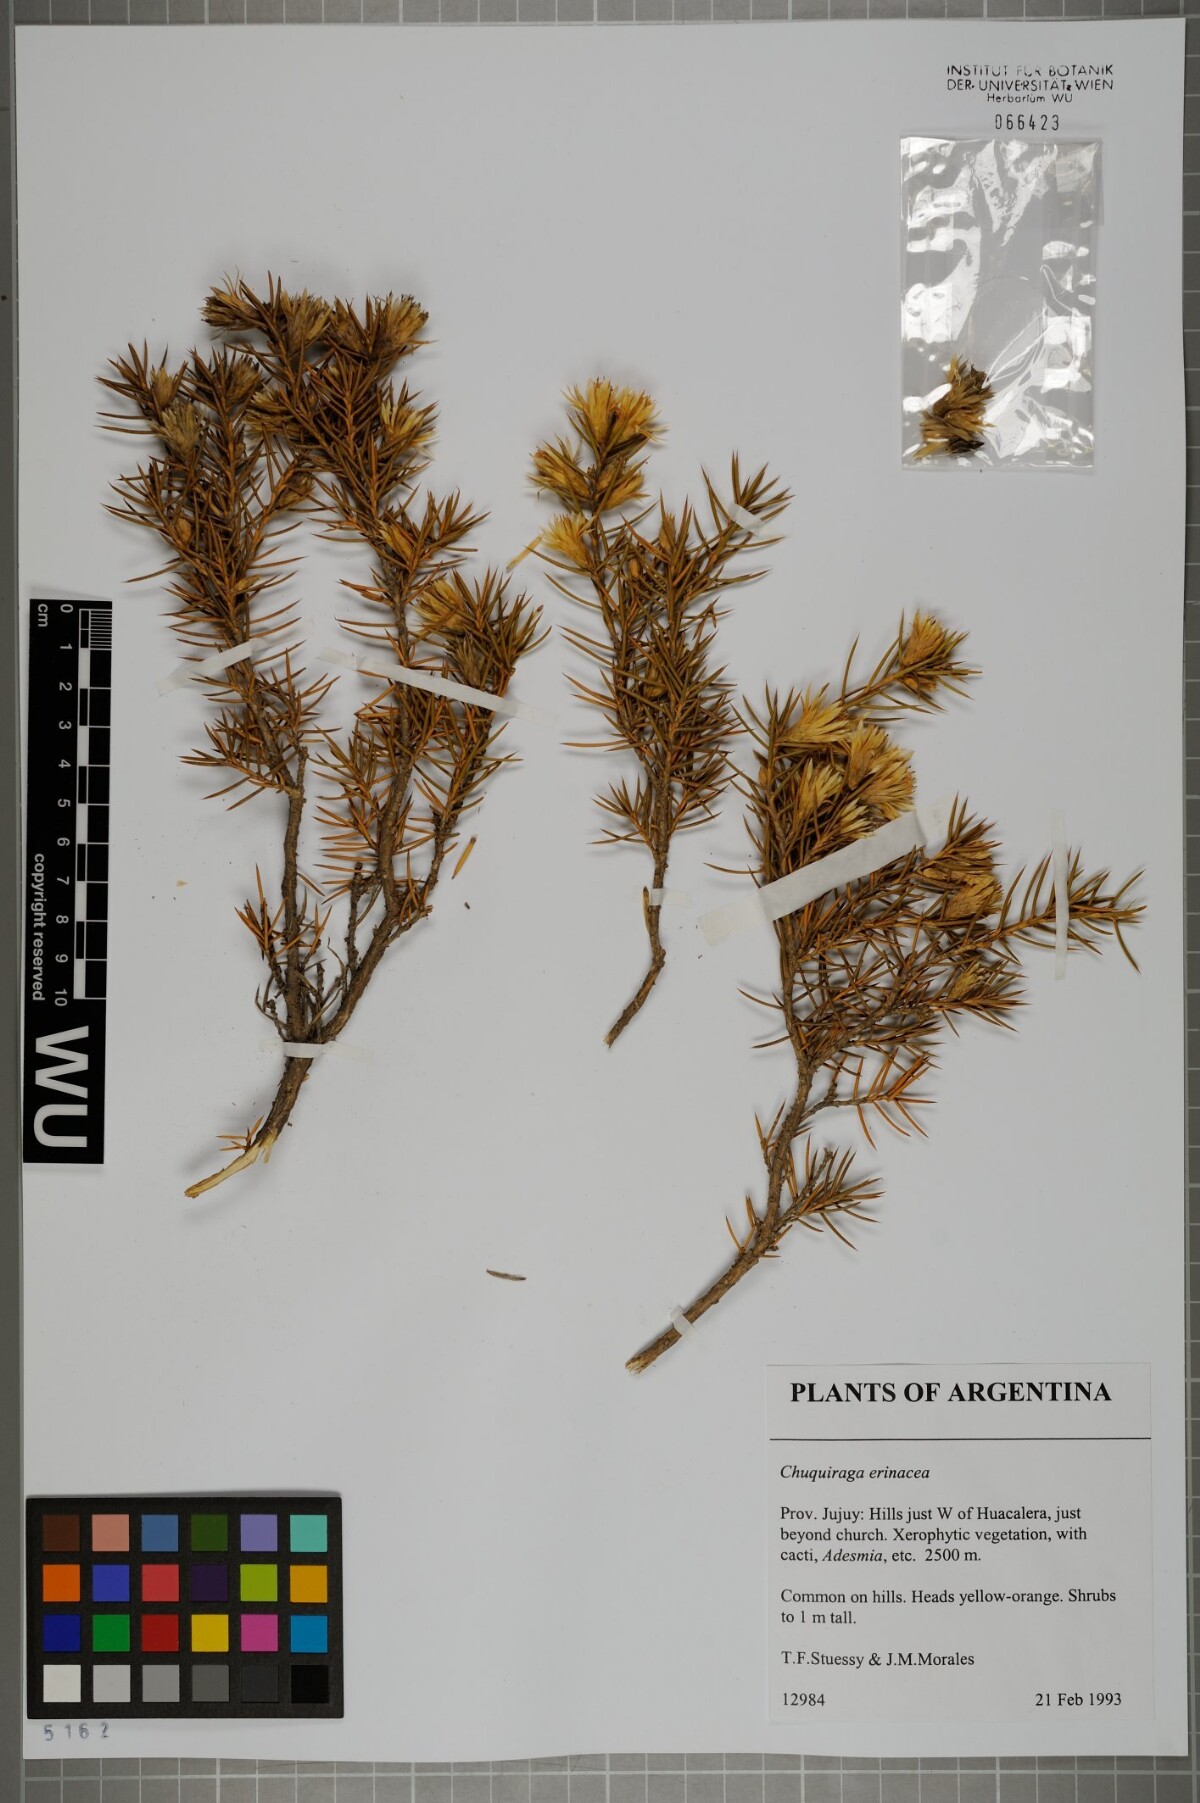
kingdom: Plantae
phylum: Tracheophyta
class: Magnoliopsida
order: Asterales
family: Asteraceae
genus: Chuquiraga
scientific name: Chuquiraga erinacea
